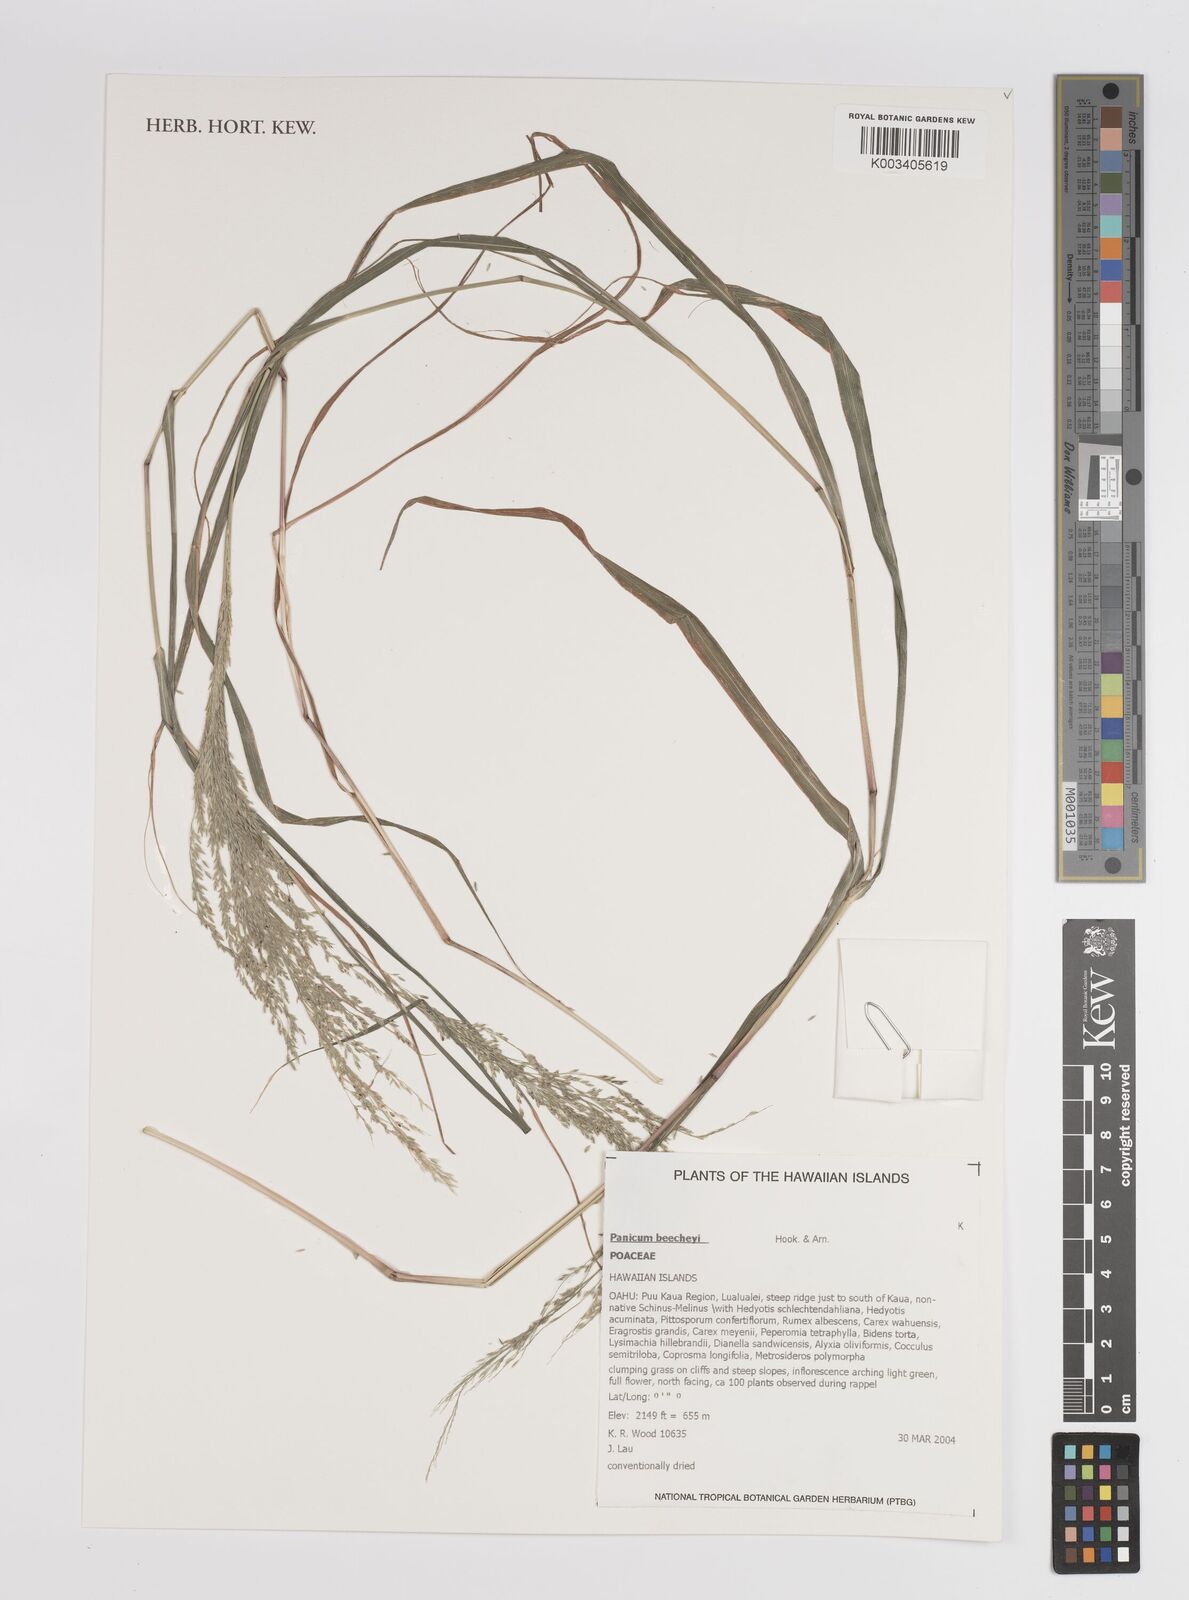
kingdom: Plantae
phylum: Tracheophyta
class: Liliopsida
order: Poales
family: Poaceae
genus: Panicum
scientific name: Panicum beecheyi
